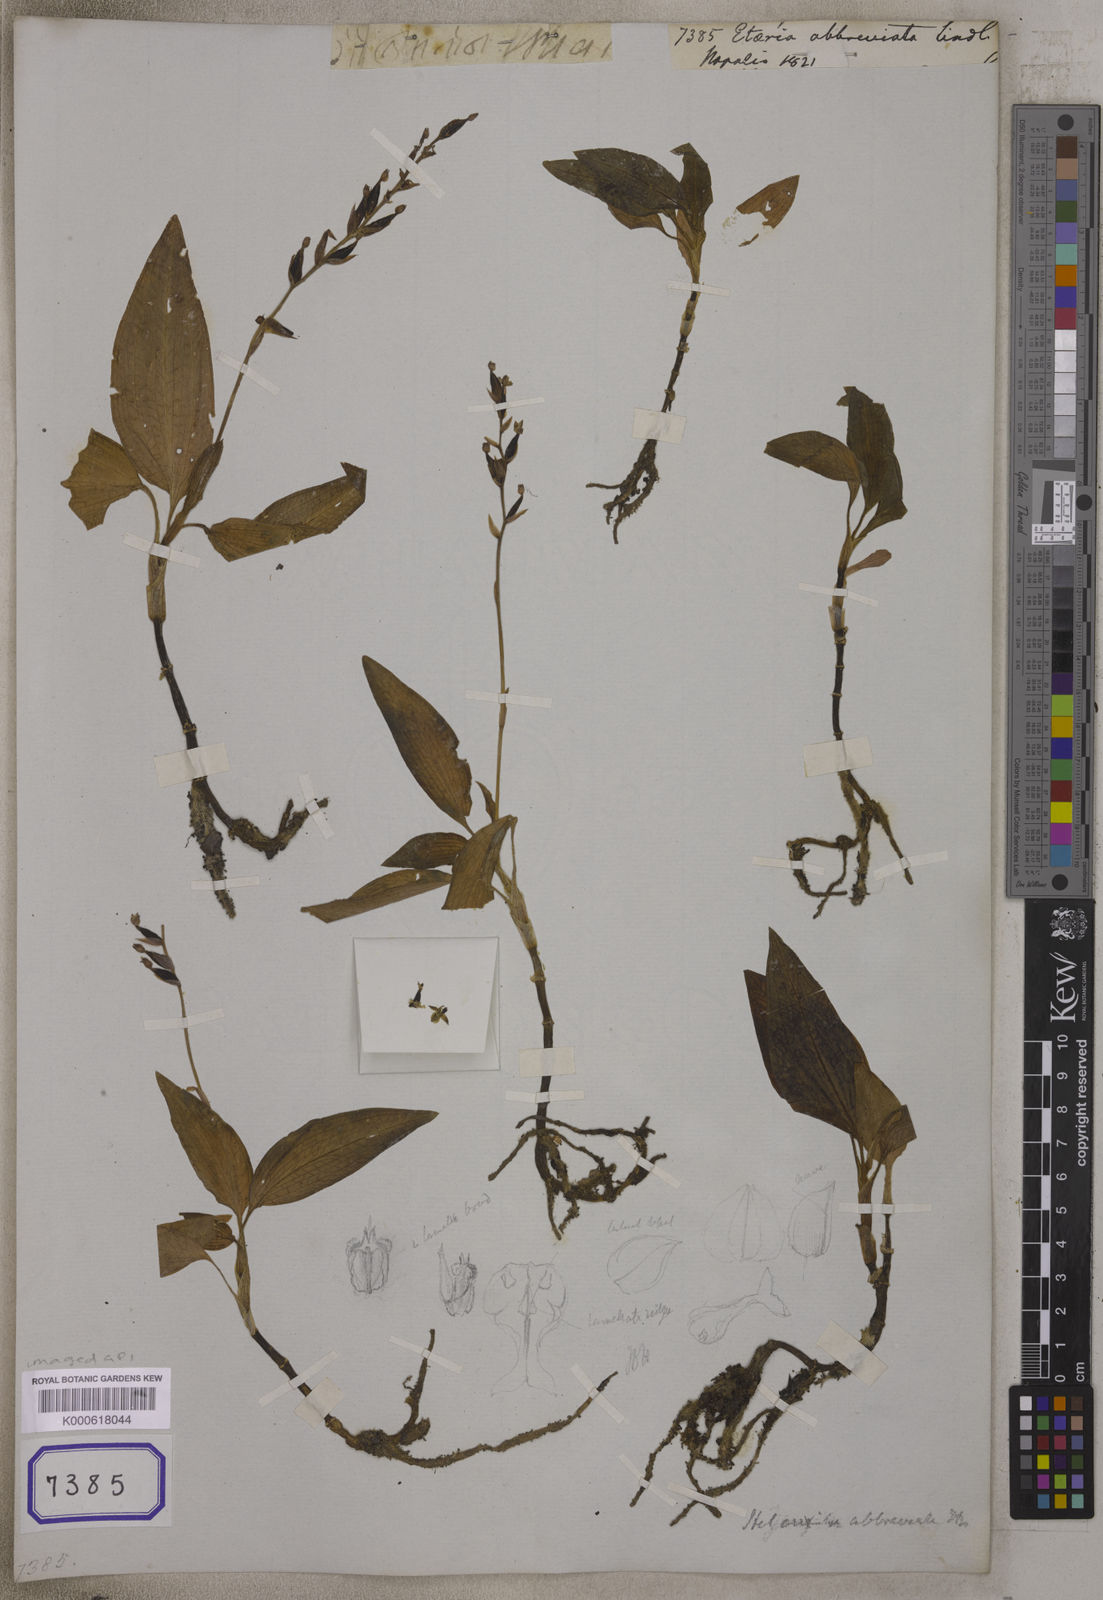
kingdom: Plantae
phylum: Tracheophyta
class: Liliopsida
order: Asparagales
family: Orchidaceae
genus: Hetaeria
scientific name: Hetaeria
